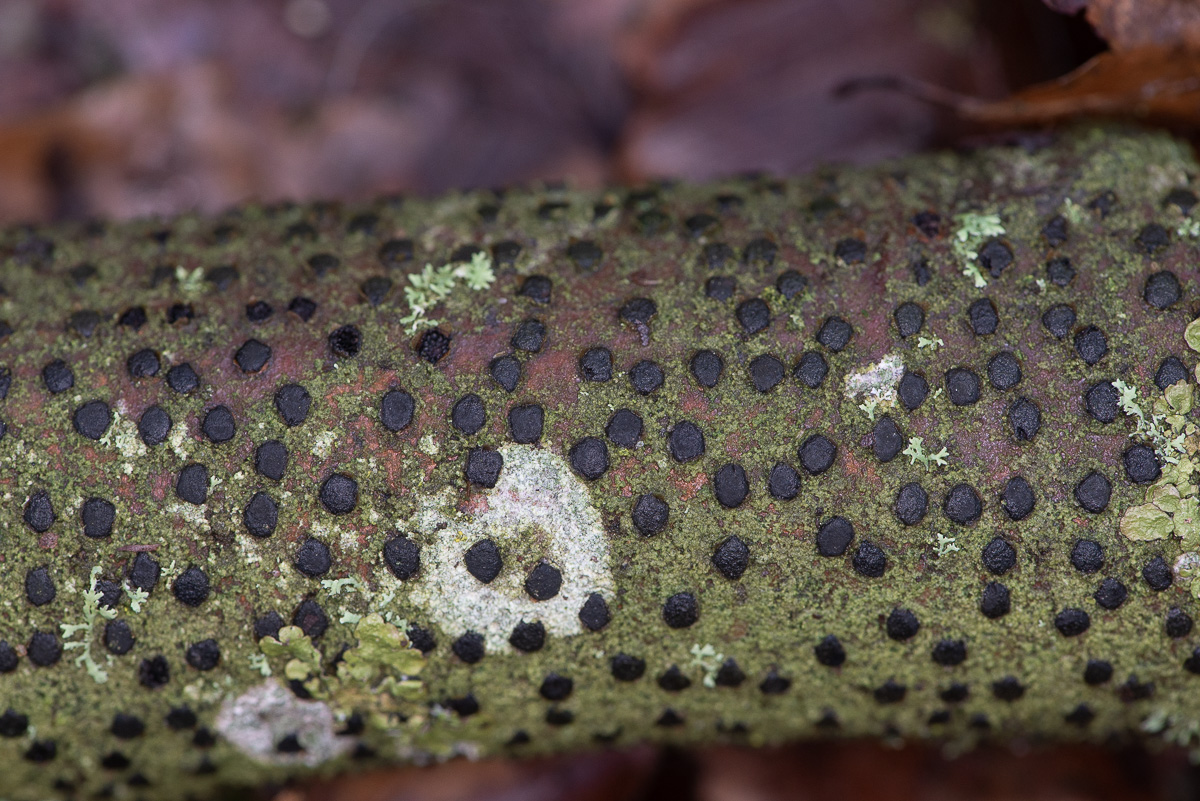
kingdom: Fungi
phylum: Ascomycota
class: Sordariomycetes
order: Xylariales
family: Diatrypaceae
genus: Diatrype
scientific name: Diatrype disciformis
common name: kant-kulskorpe
